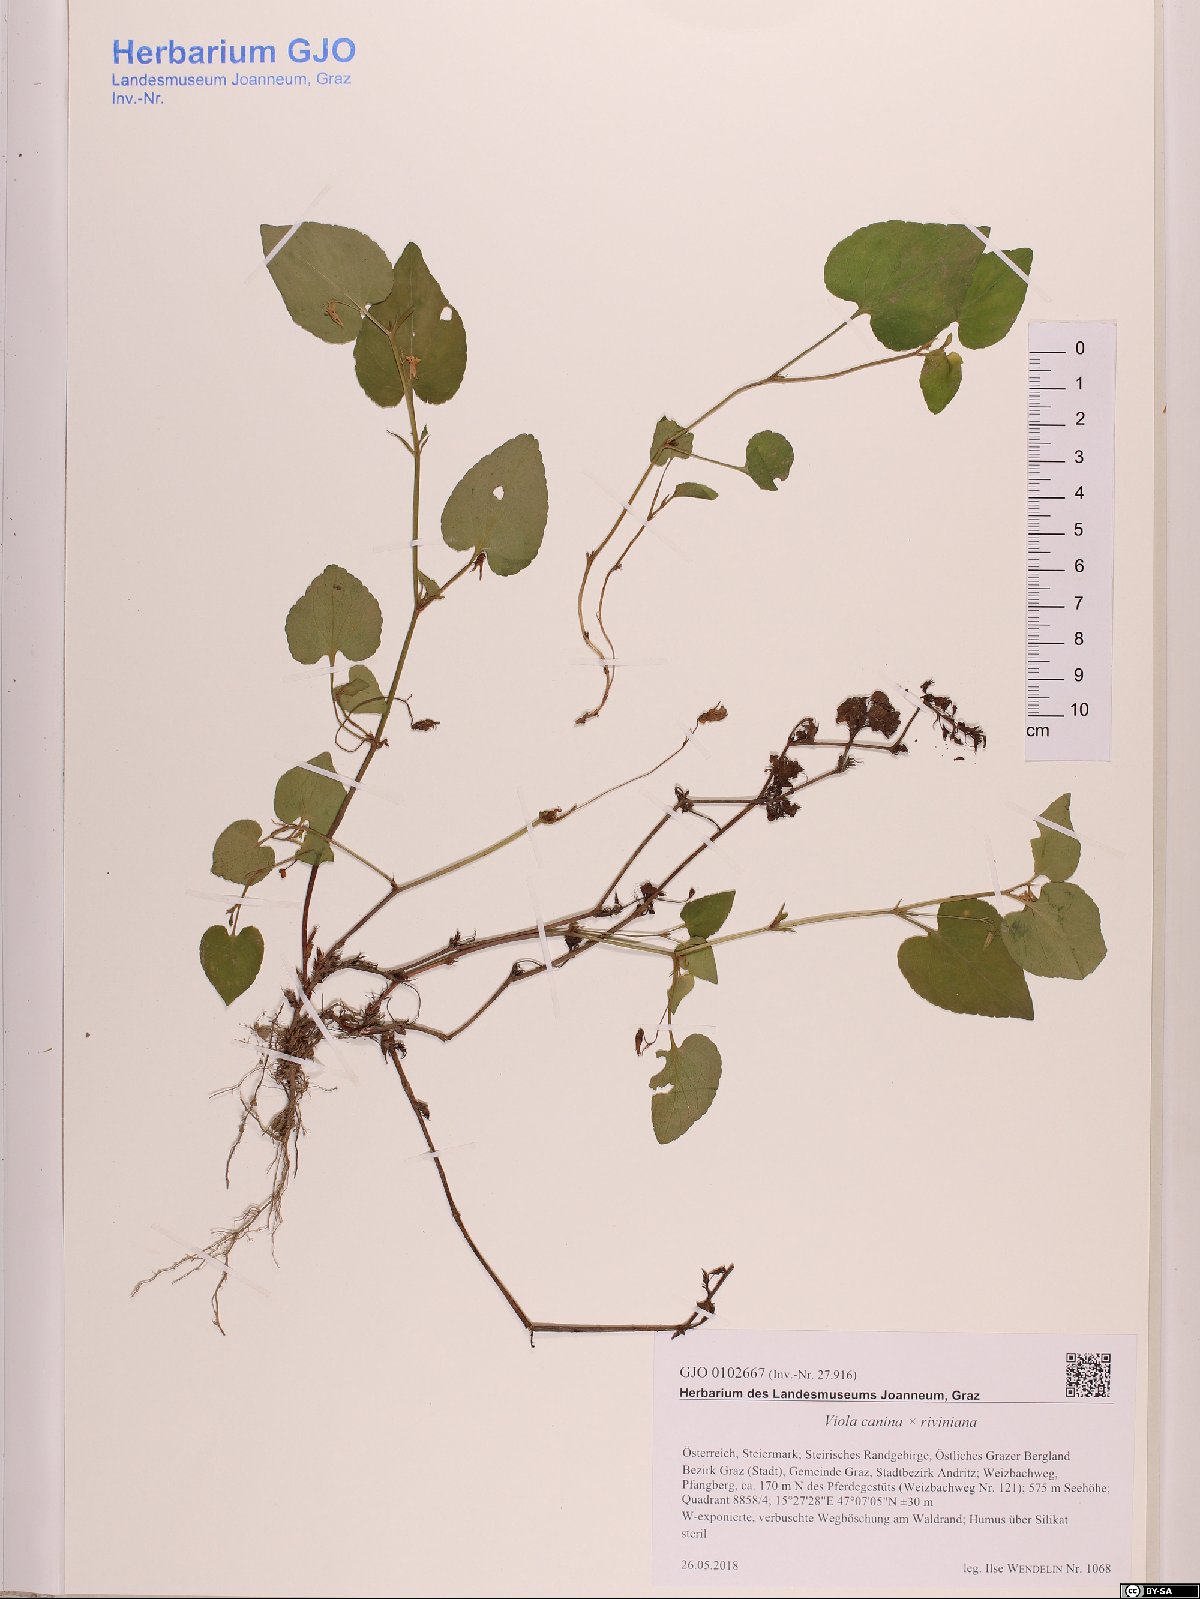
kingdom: Plantae
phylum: Tracheophyta
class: Magnoliopsida
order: Malpighiales
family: Violaceae
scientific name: Violaceae
